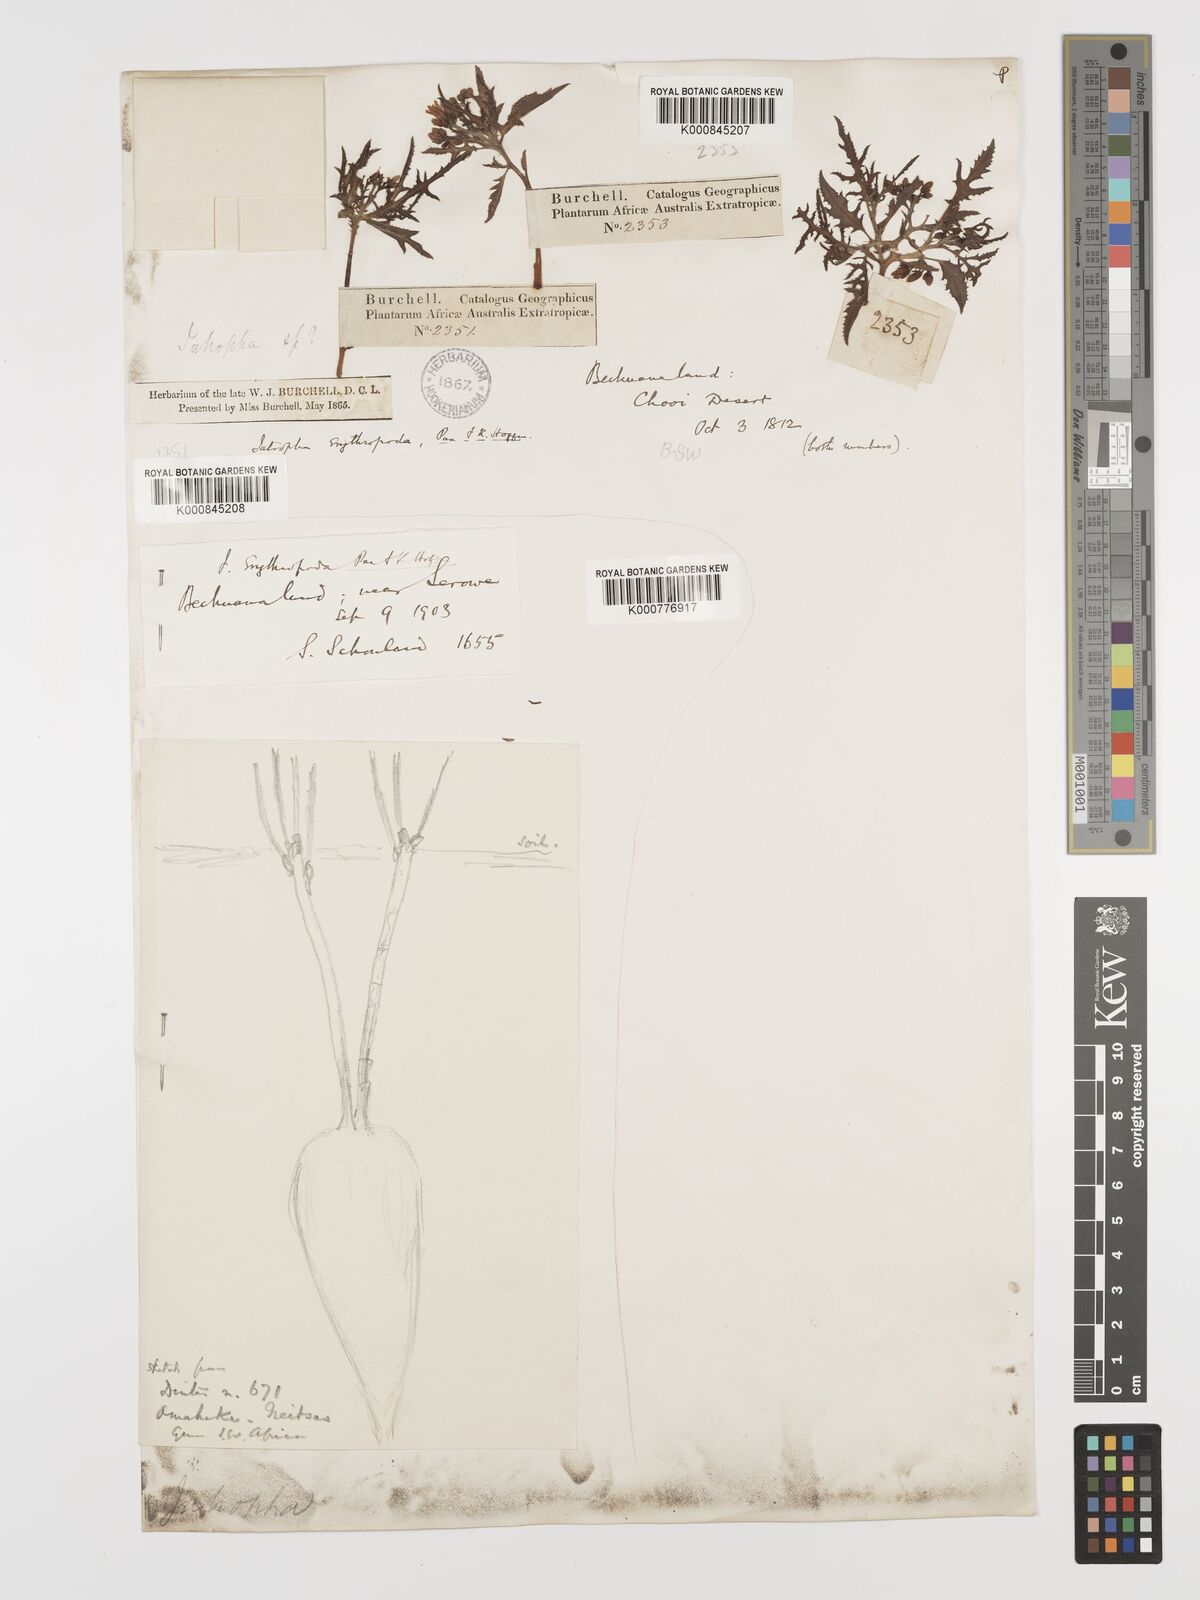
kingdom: Plantae
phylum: Tracheophyta
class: Magnoliopsida
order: Malpighiales
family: Euphorbiaceae
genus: Jatropha
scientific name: Jatropha erythropoda
